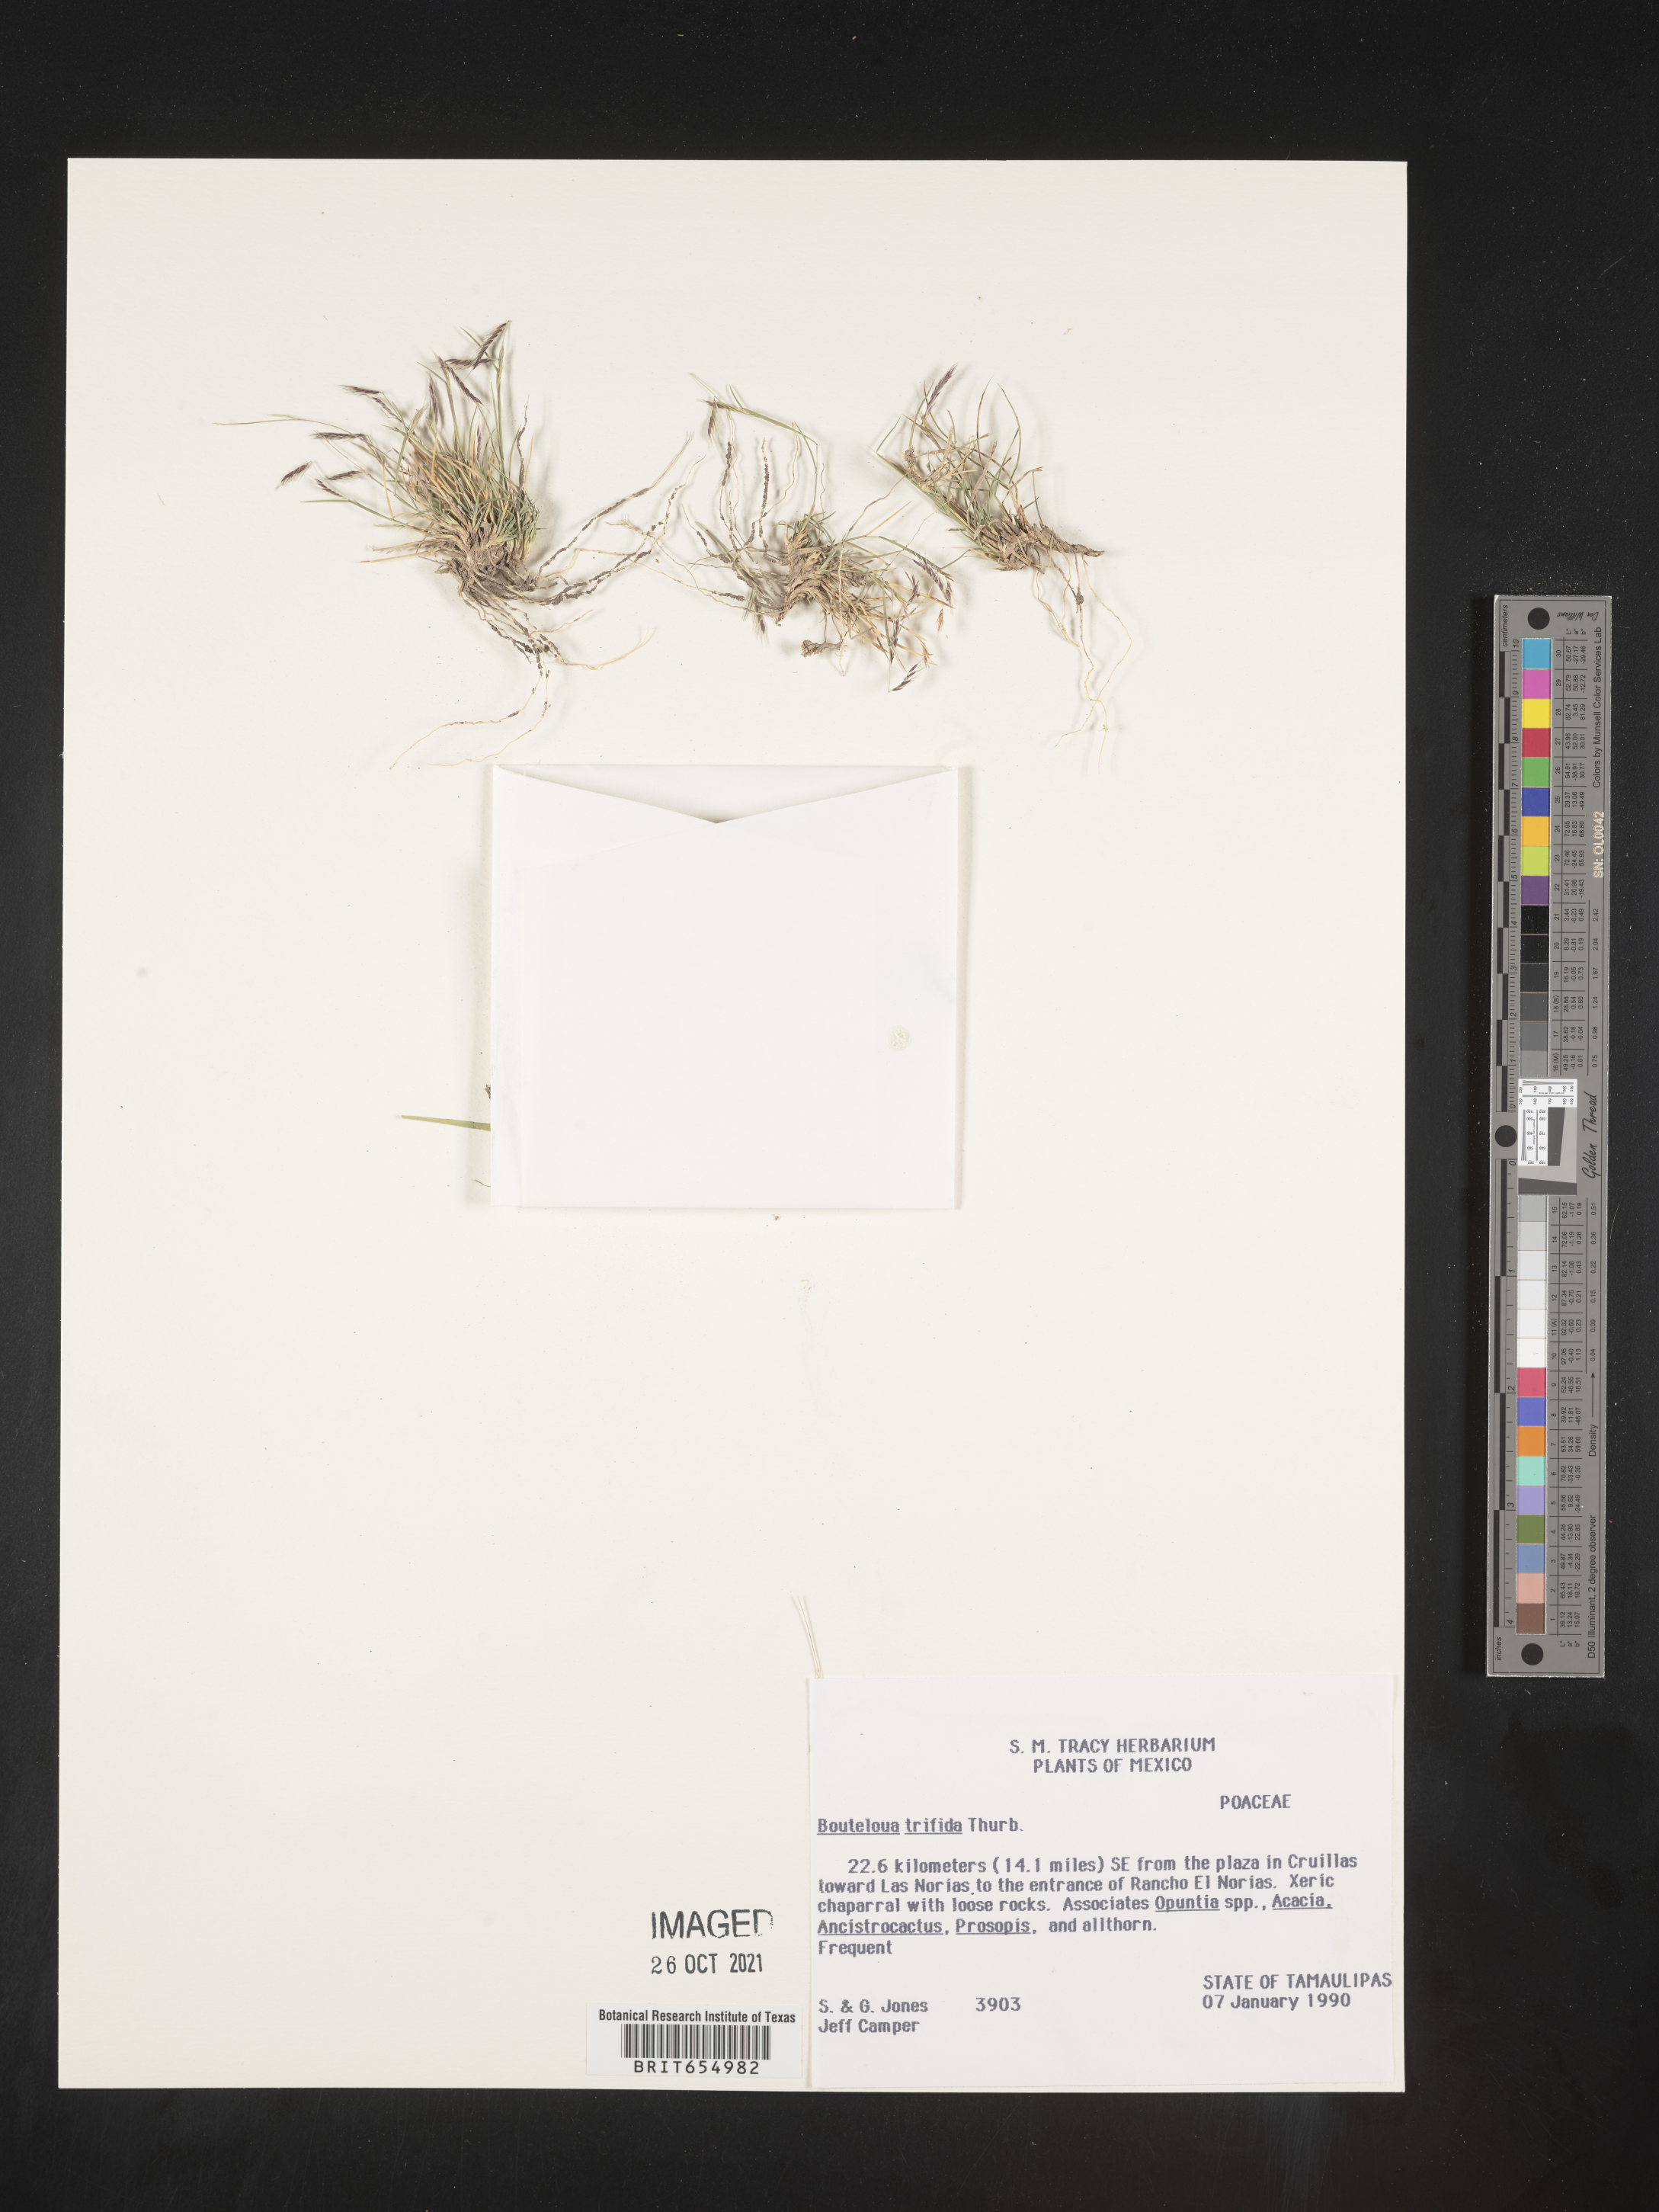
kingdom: Plantae
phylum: Tracheophyta
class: Liliopsida
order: Poales
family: Poaceae
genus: Bouteloua
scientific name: Bouteloua
